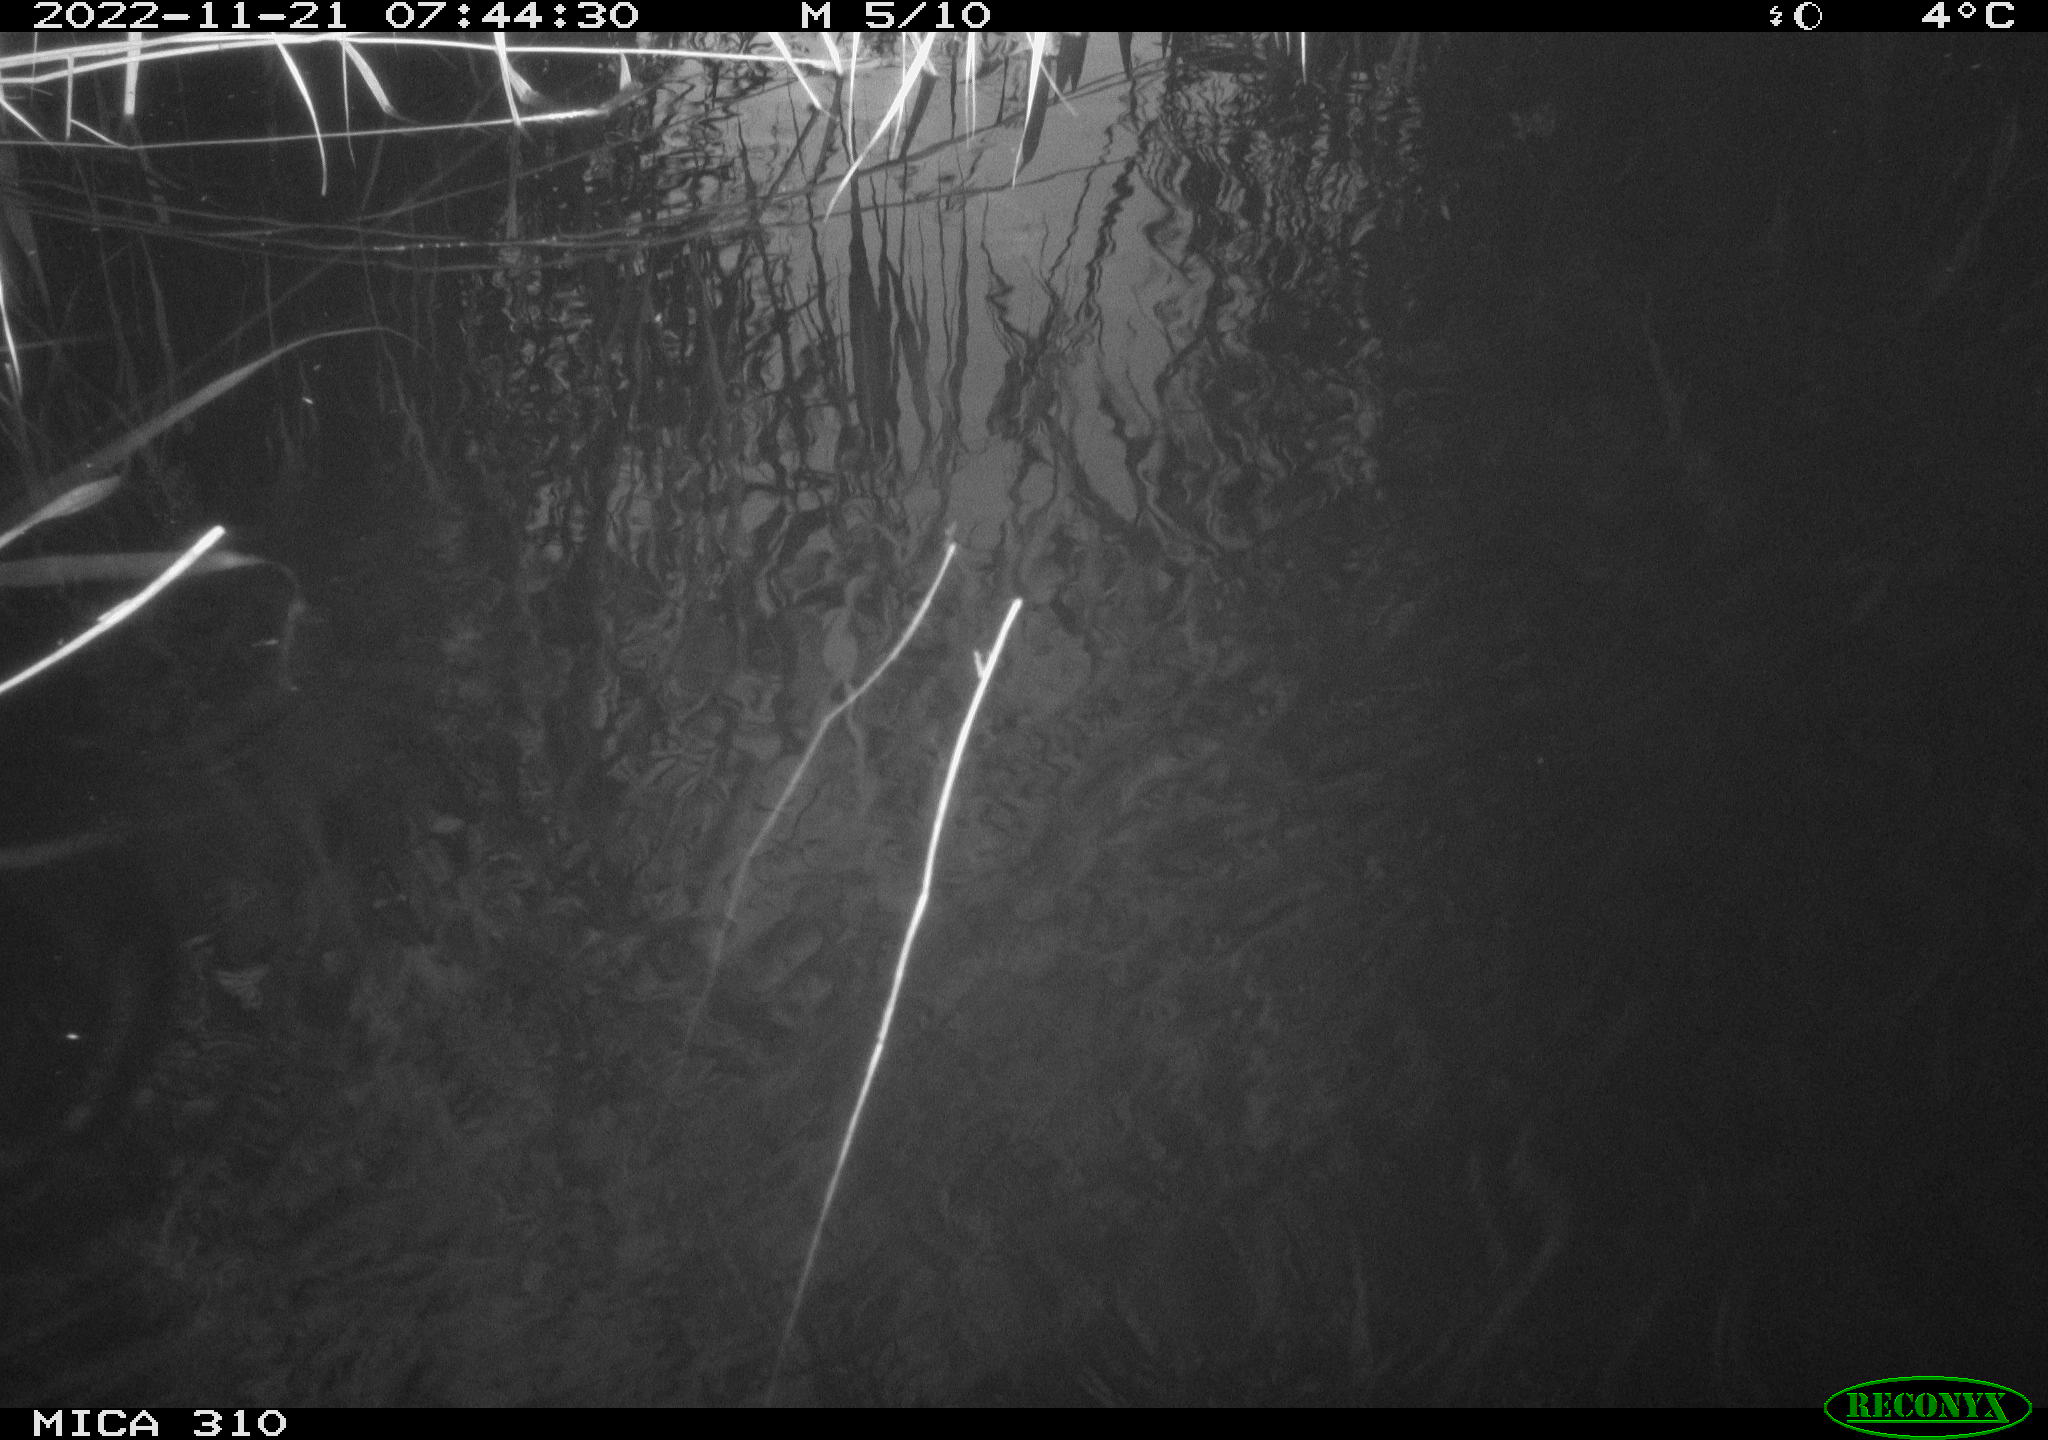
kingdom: Animalia
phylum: Chordata
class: Aves
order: Gruiformes
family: Rallidae
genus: Gallinula
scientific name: Gallinula chloropus
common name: Common moorhen
